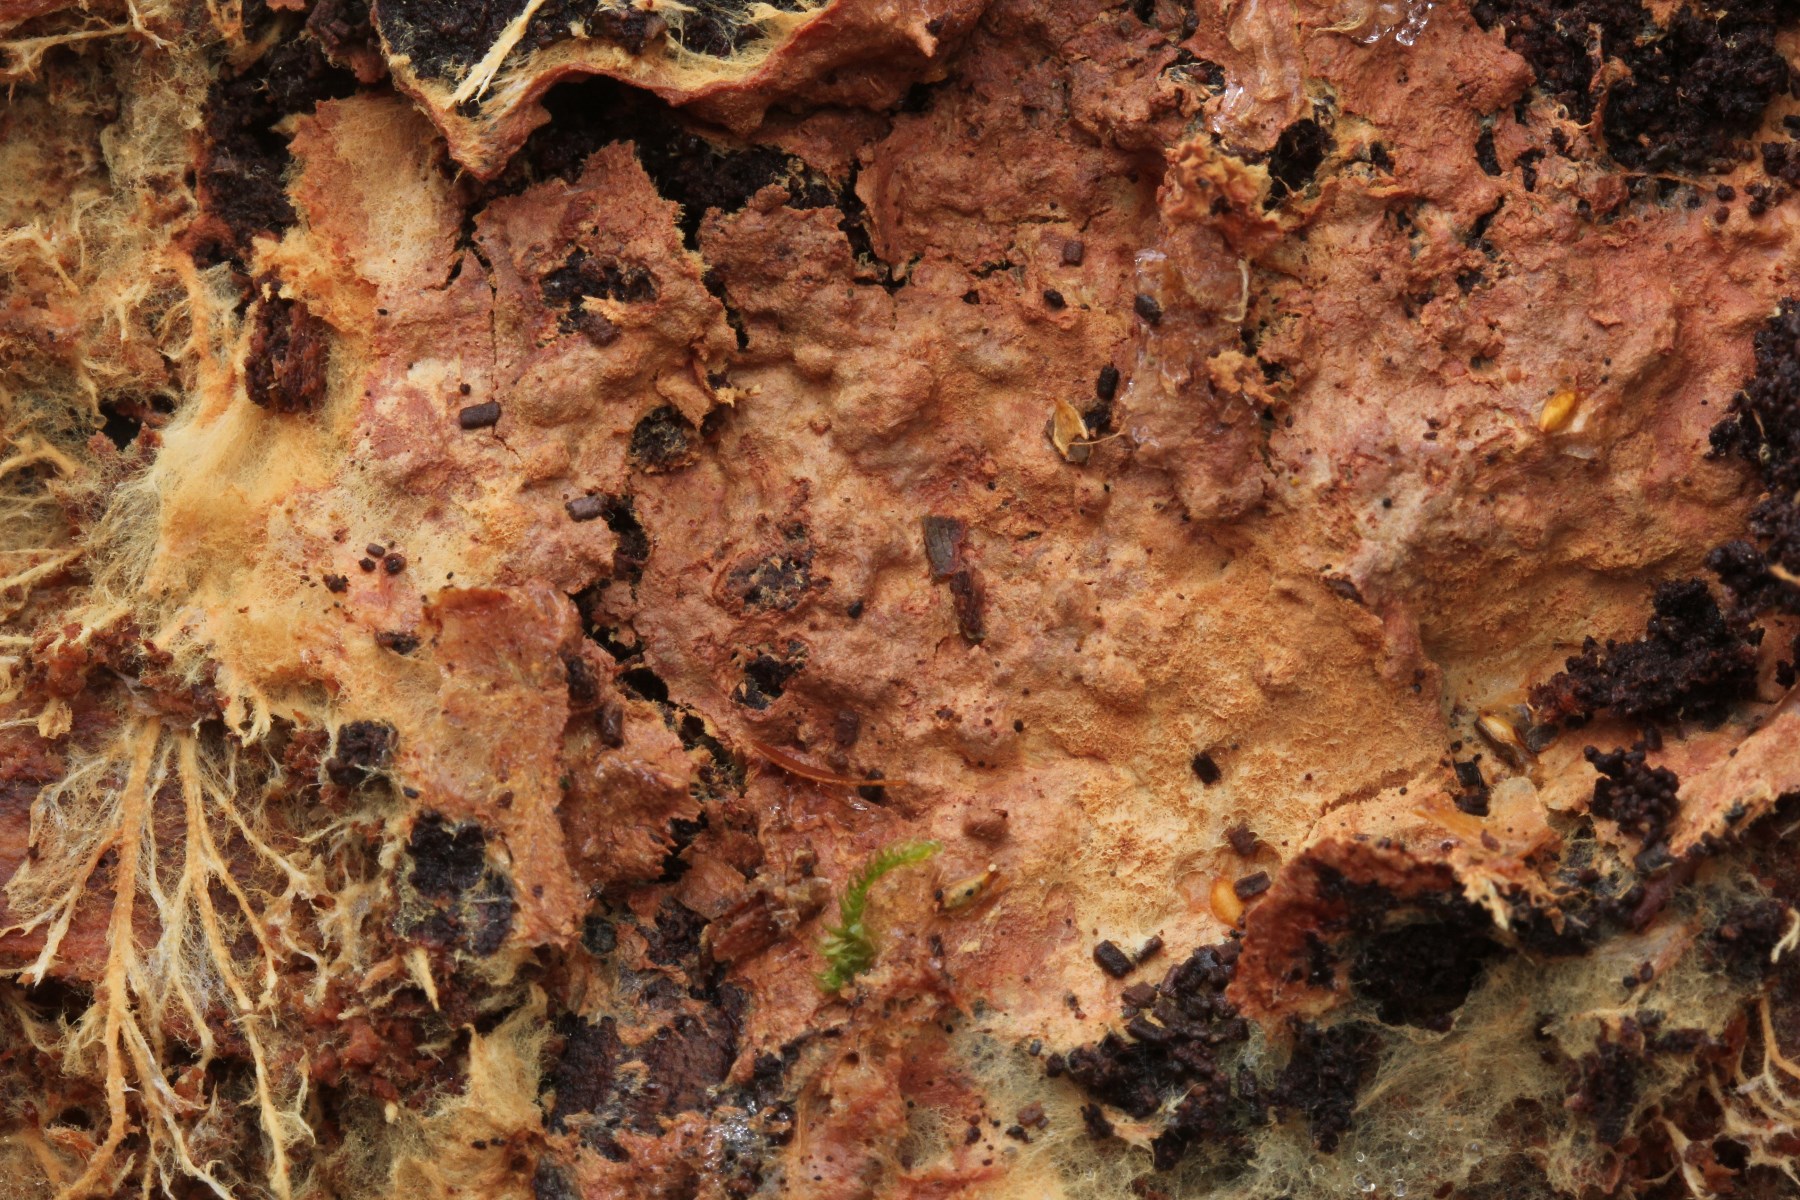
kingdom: Fungi
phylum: Basidiomycota
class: Agaricomycetes
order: Polyporales
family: Phanerochaetaceae
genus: Rhizochaete
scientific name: Rhizochaete radicata
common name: orangebrun randtråd
